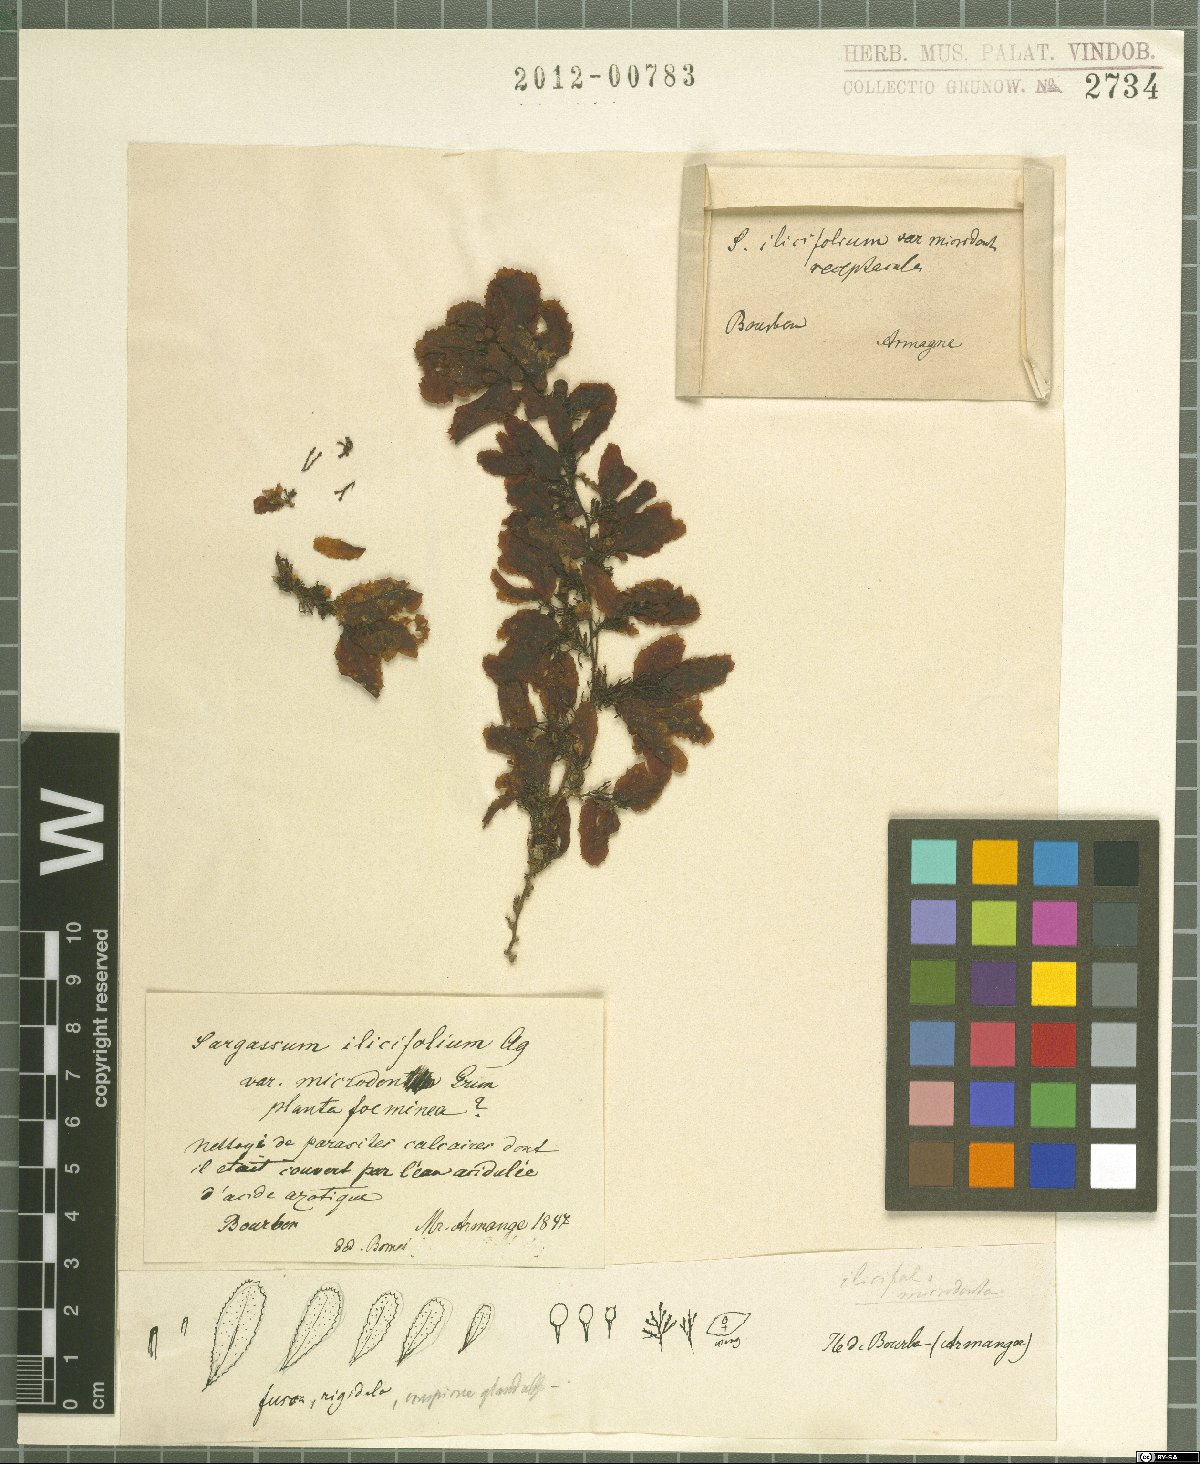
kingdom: Chromista
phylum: Ochrophyta
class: Phaeophyceae
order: Fucales
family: Sargassaceae
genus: Sargassum
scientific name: Sargassum
